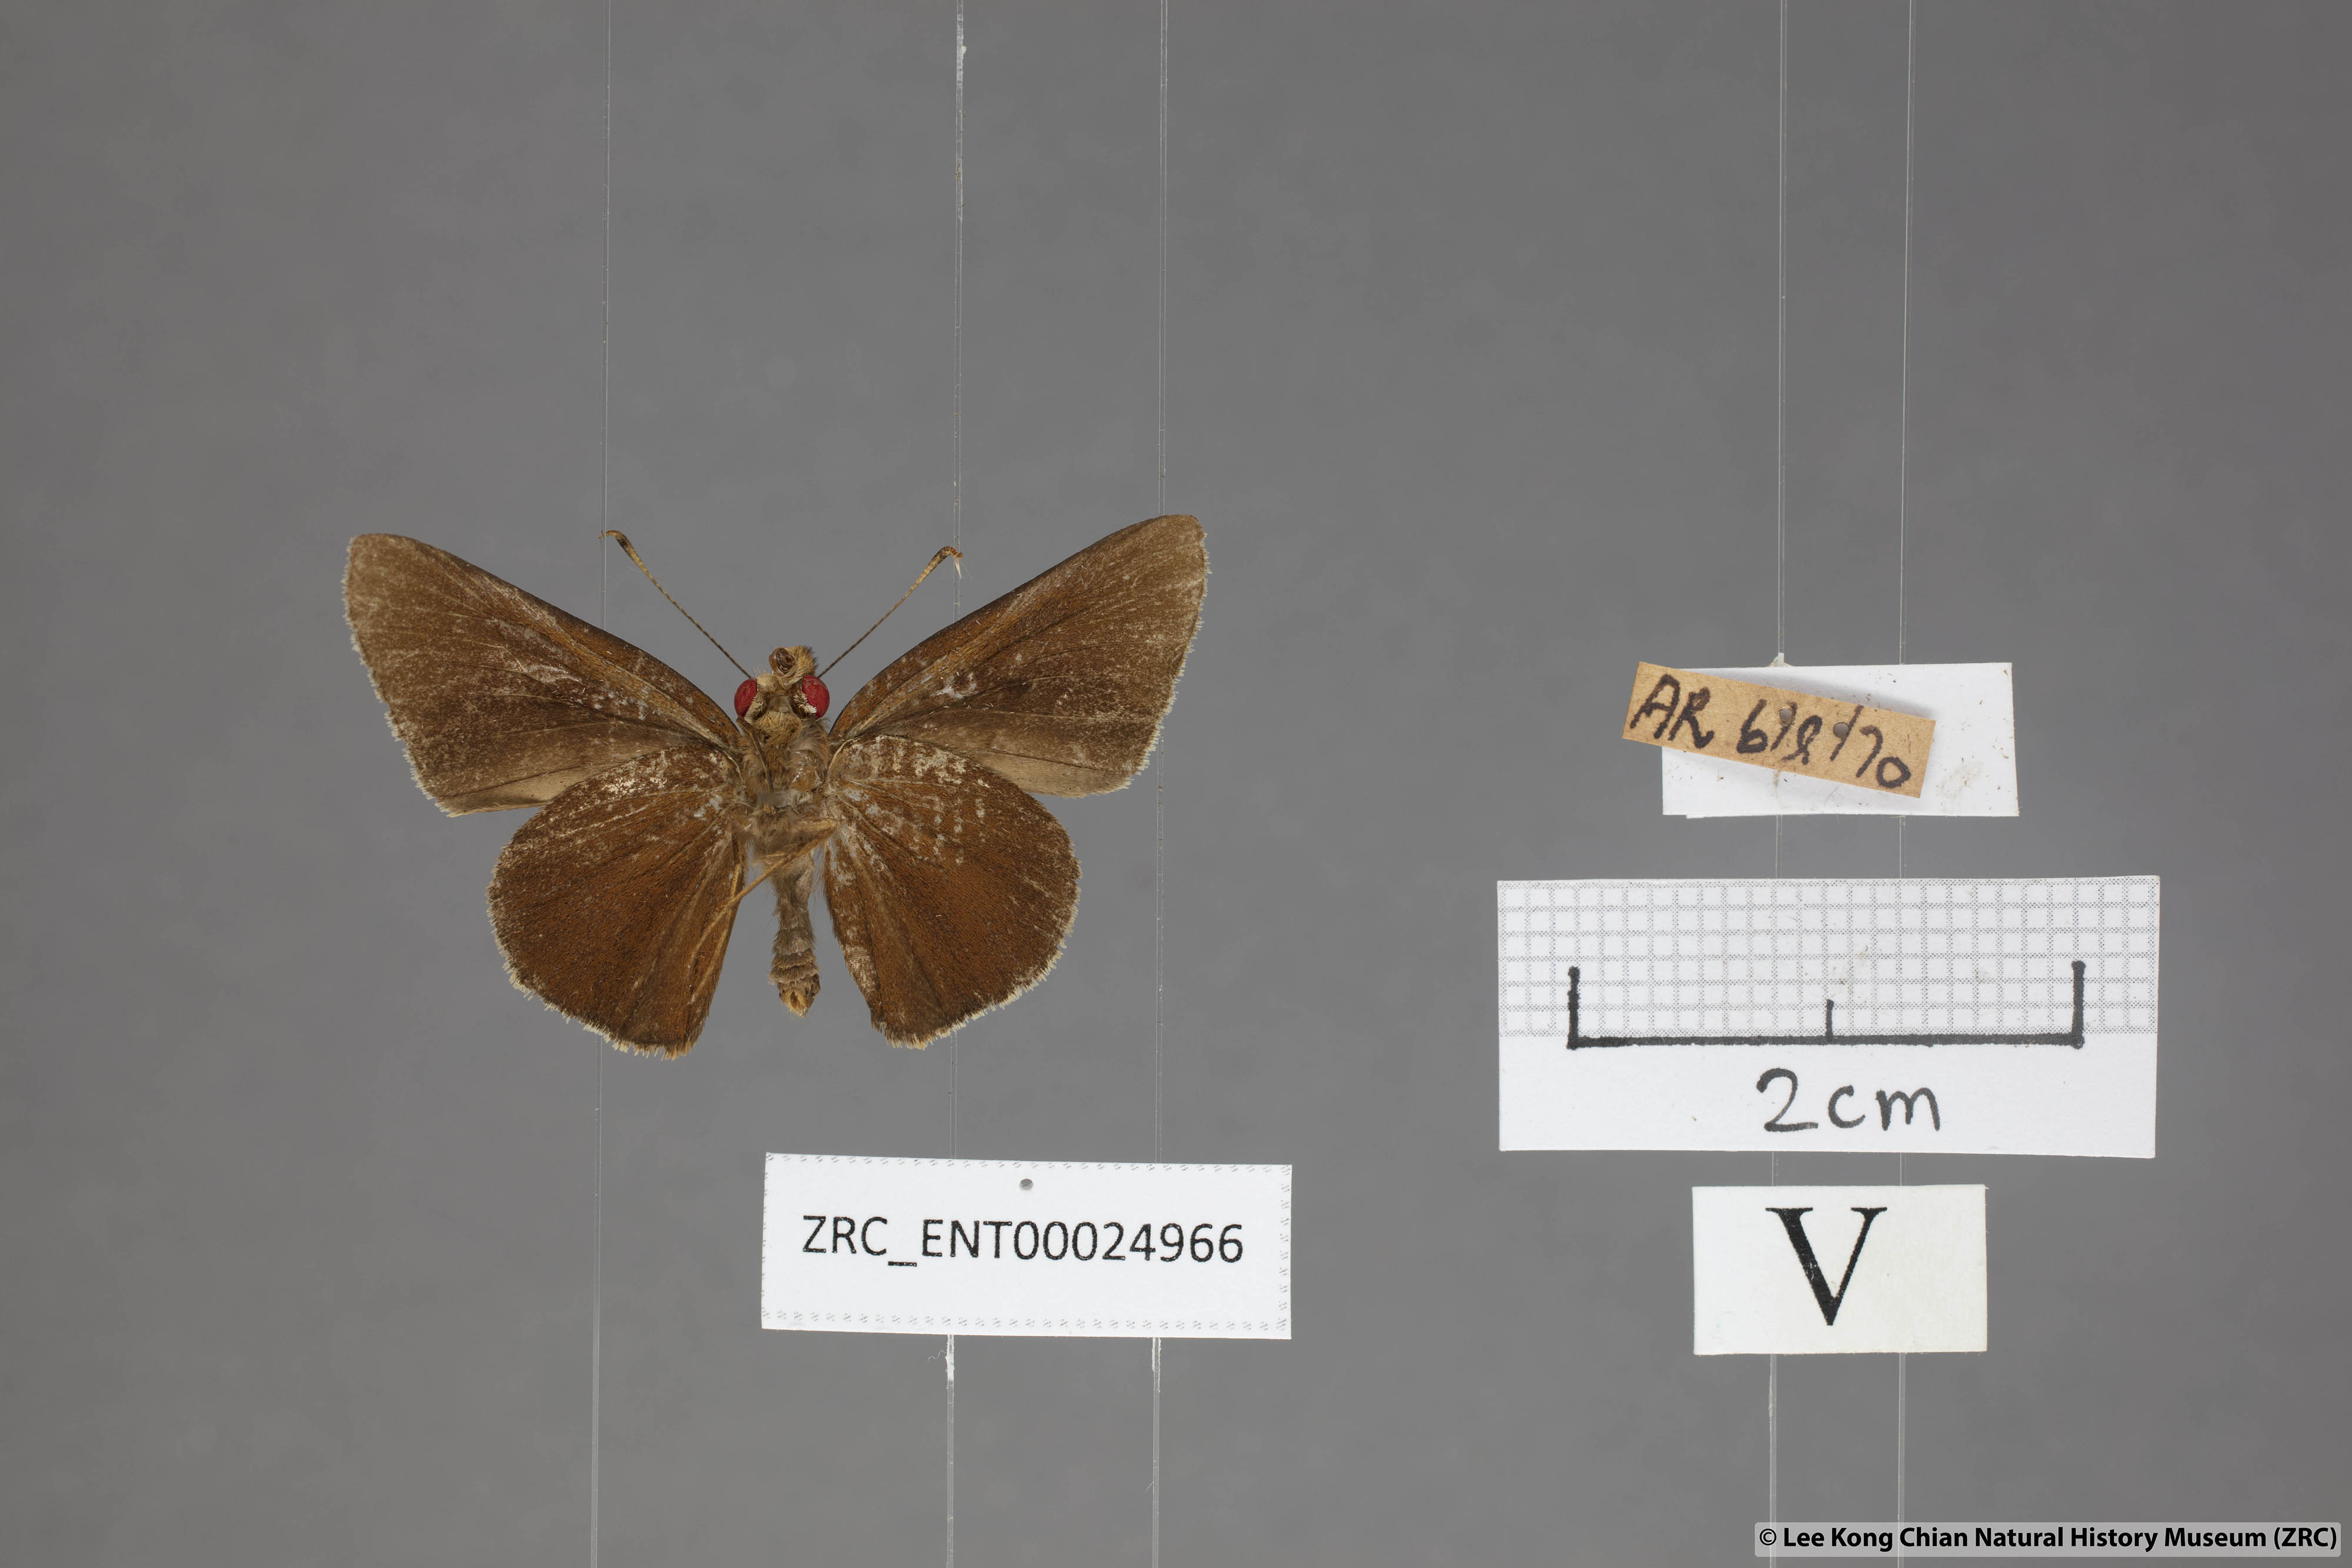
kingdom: Animalia
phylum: Arthropoda
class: Insecta
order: Lepidoptera
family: Hesperiidae
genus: Matapa
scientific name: Matapa aria
